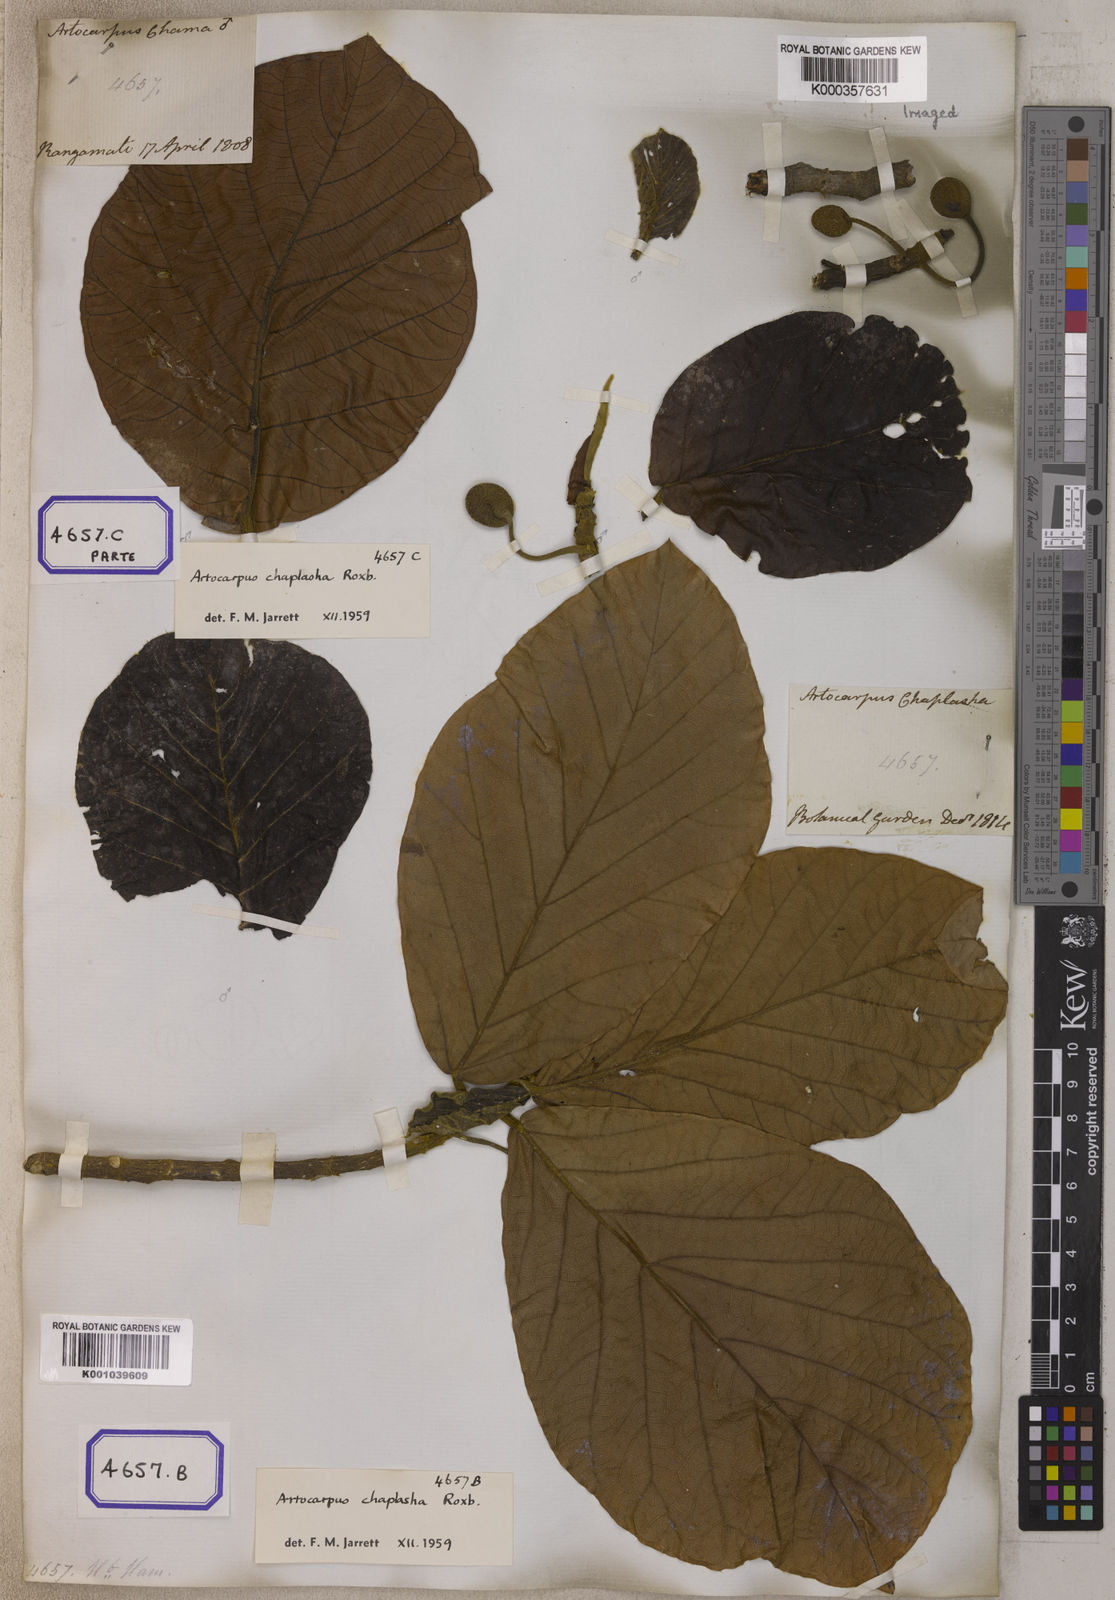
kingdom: Plantae
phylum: Tracheophyta
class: Magnoliopsida
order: Rosales
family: Moraceae
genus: Artocarpus
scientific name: Artocarpus chama
